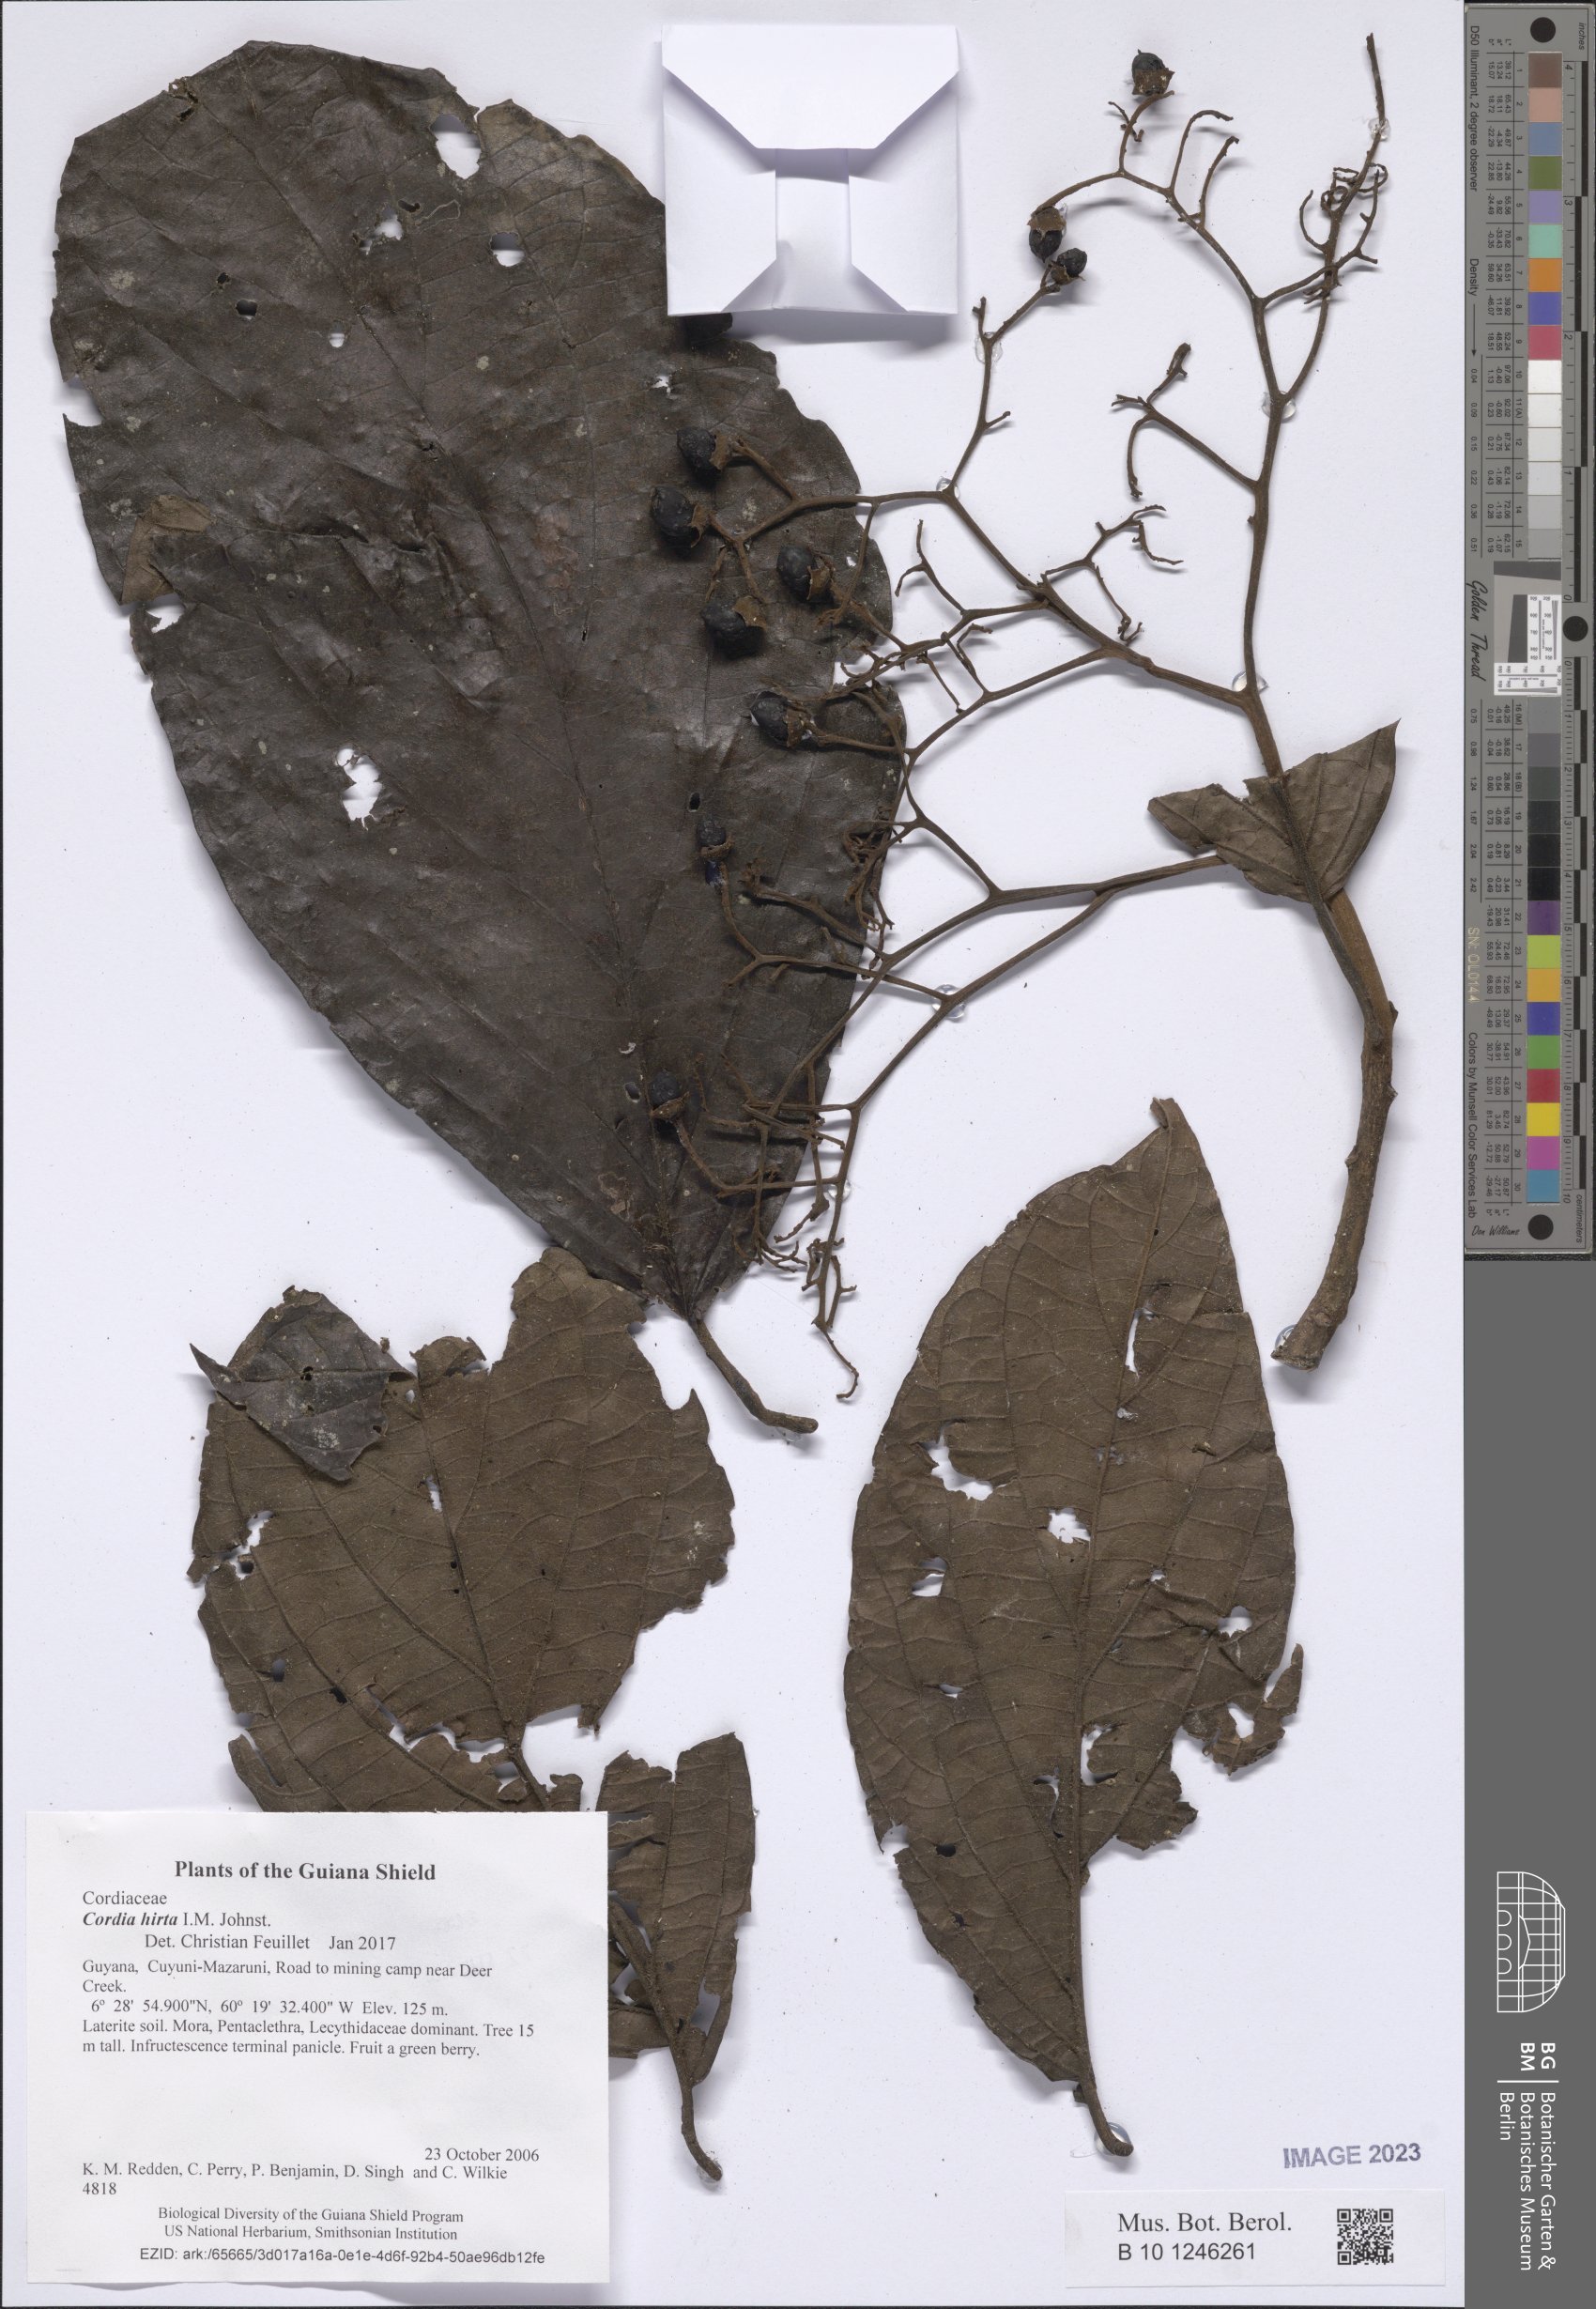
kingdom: Plantae
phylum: Tracheophyta
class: Magnoliopsida
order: Boraginales
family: Cordiaceae
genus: Cordia
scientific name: Cordia sagotii
